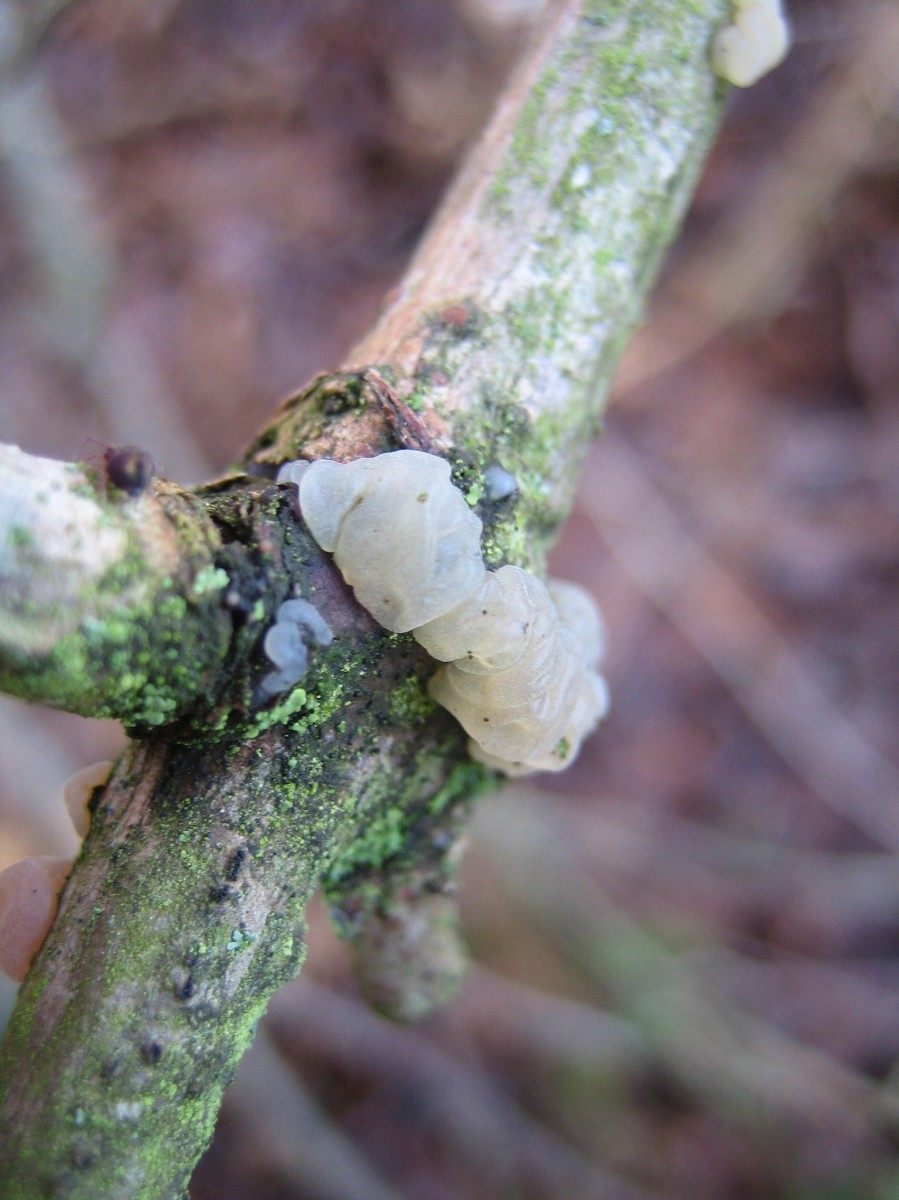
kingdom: Fungi
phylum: Basidiomycota
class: Agaricomycetes
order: Auriculariales
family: Hyaloriaceae
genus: Myxarium
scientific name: Myxarium
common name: bævretop
